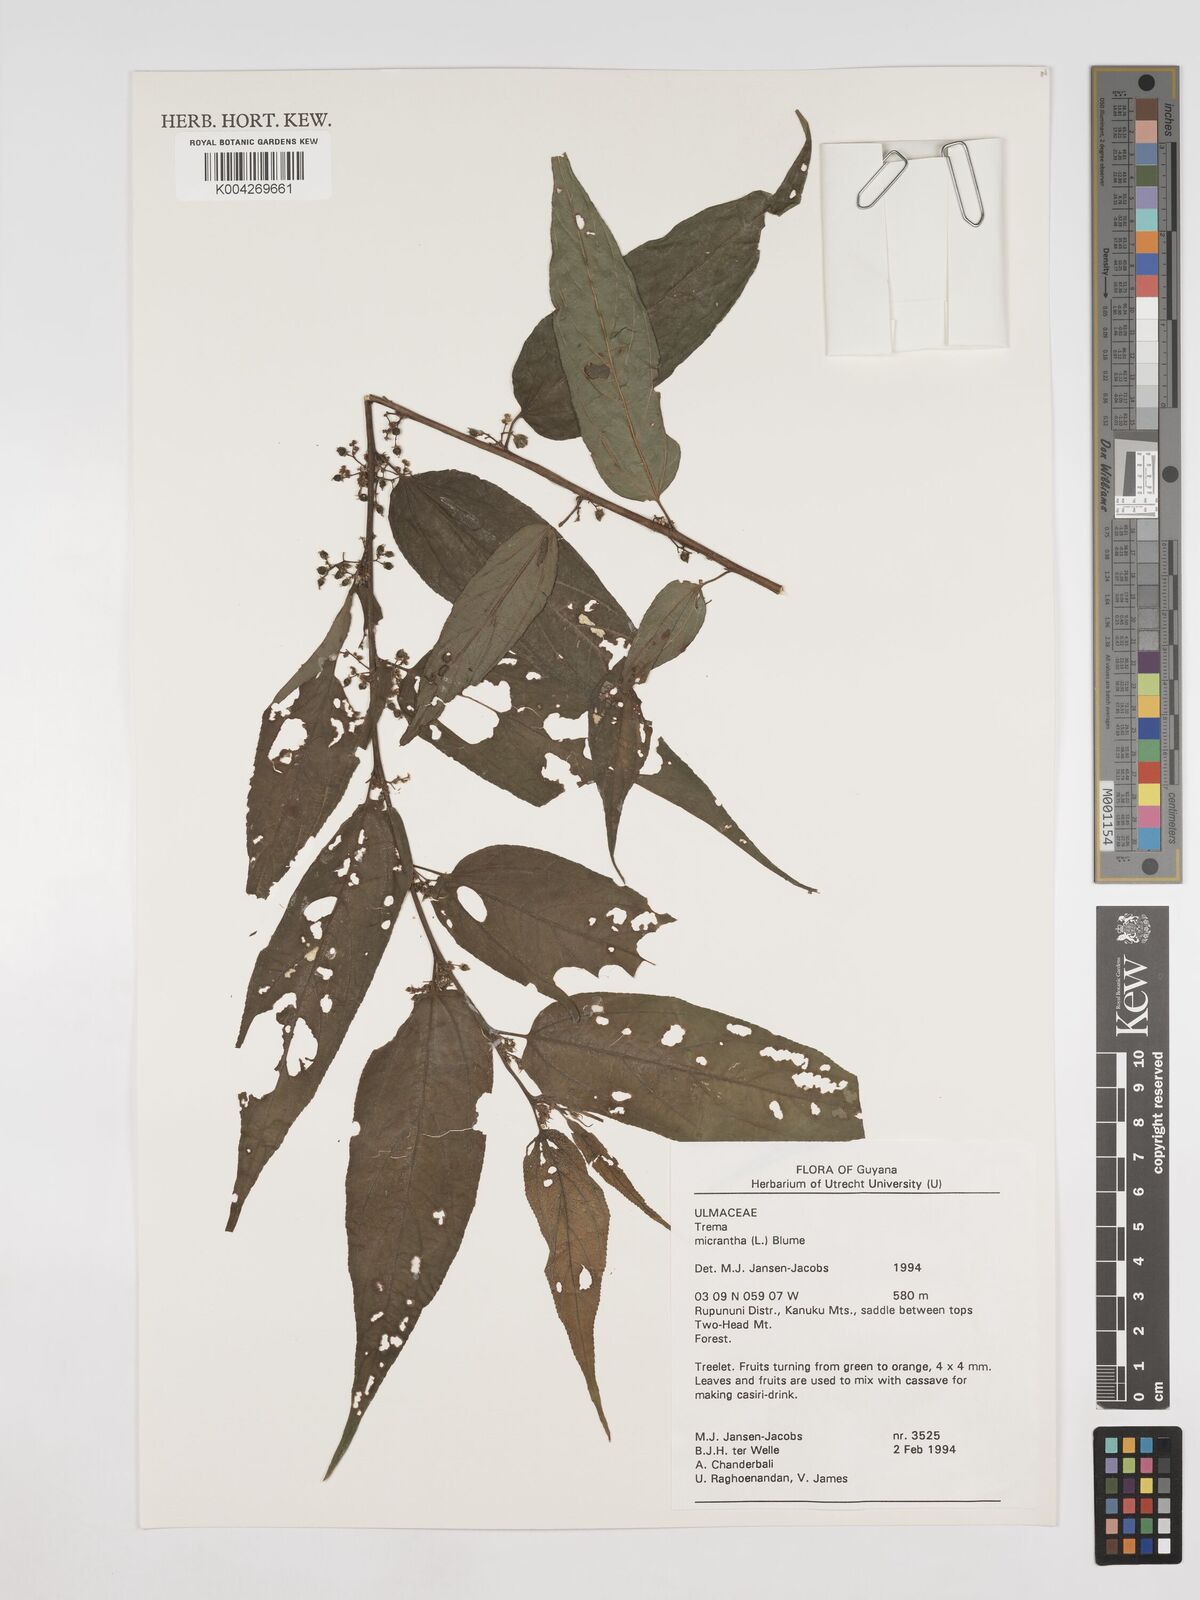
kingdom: Plantae
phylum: Tracheophyta
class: Magnoliopsida
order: Rosales
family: Cannabaceae
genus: Trema
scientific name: Trema micranthum
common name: Jamaican nettletree
